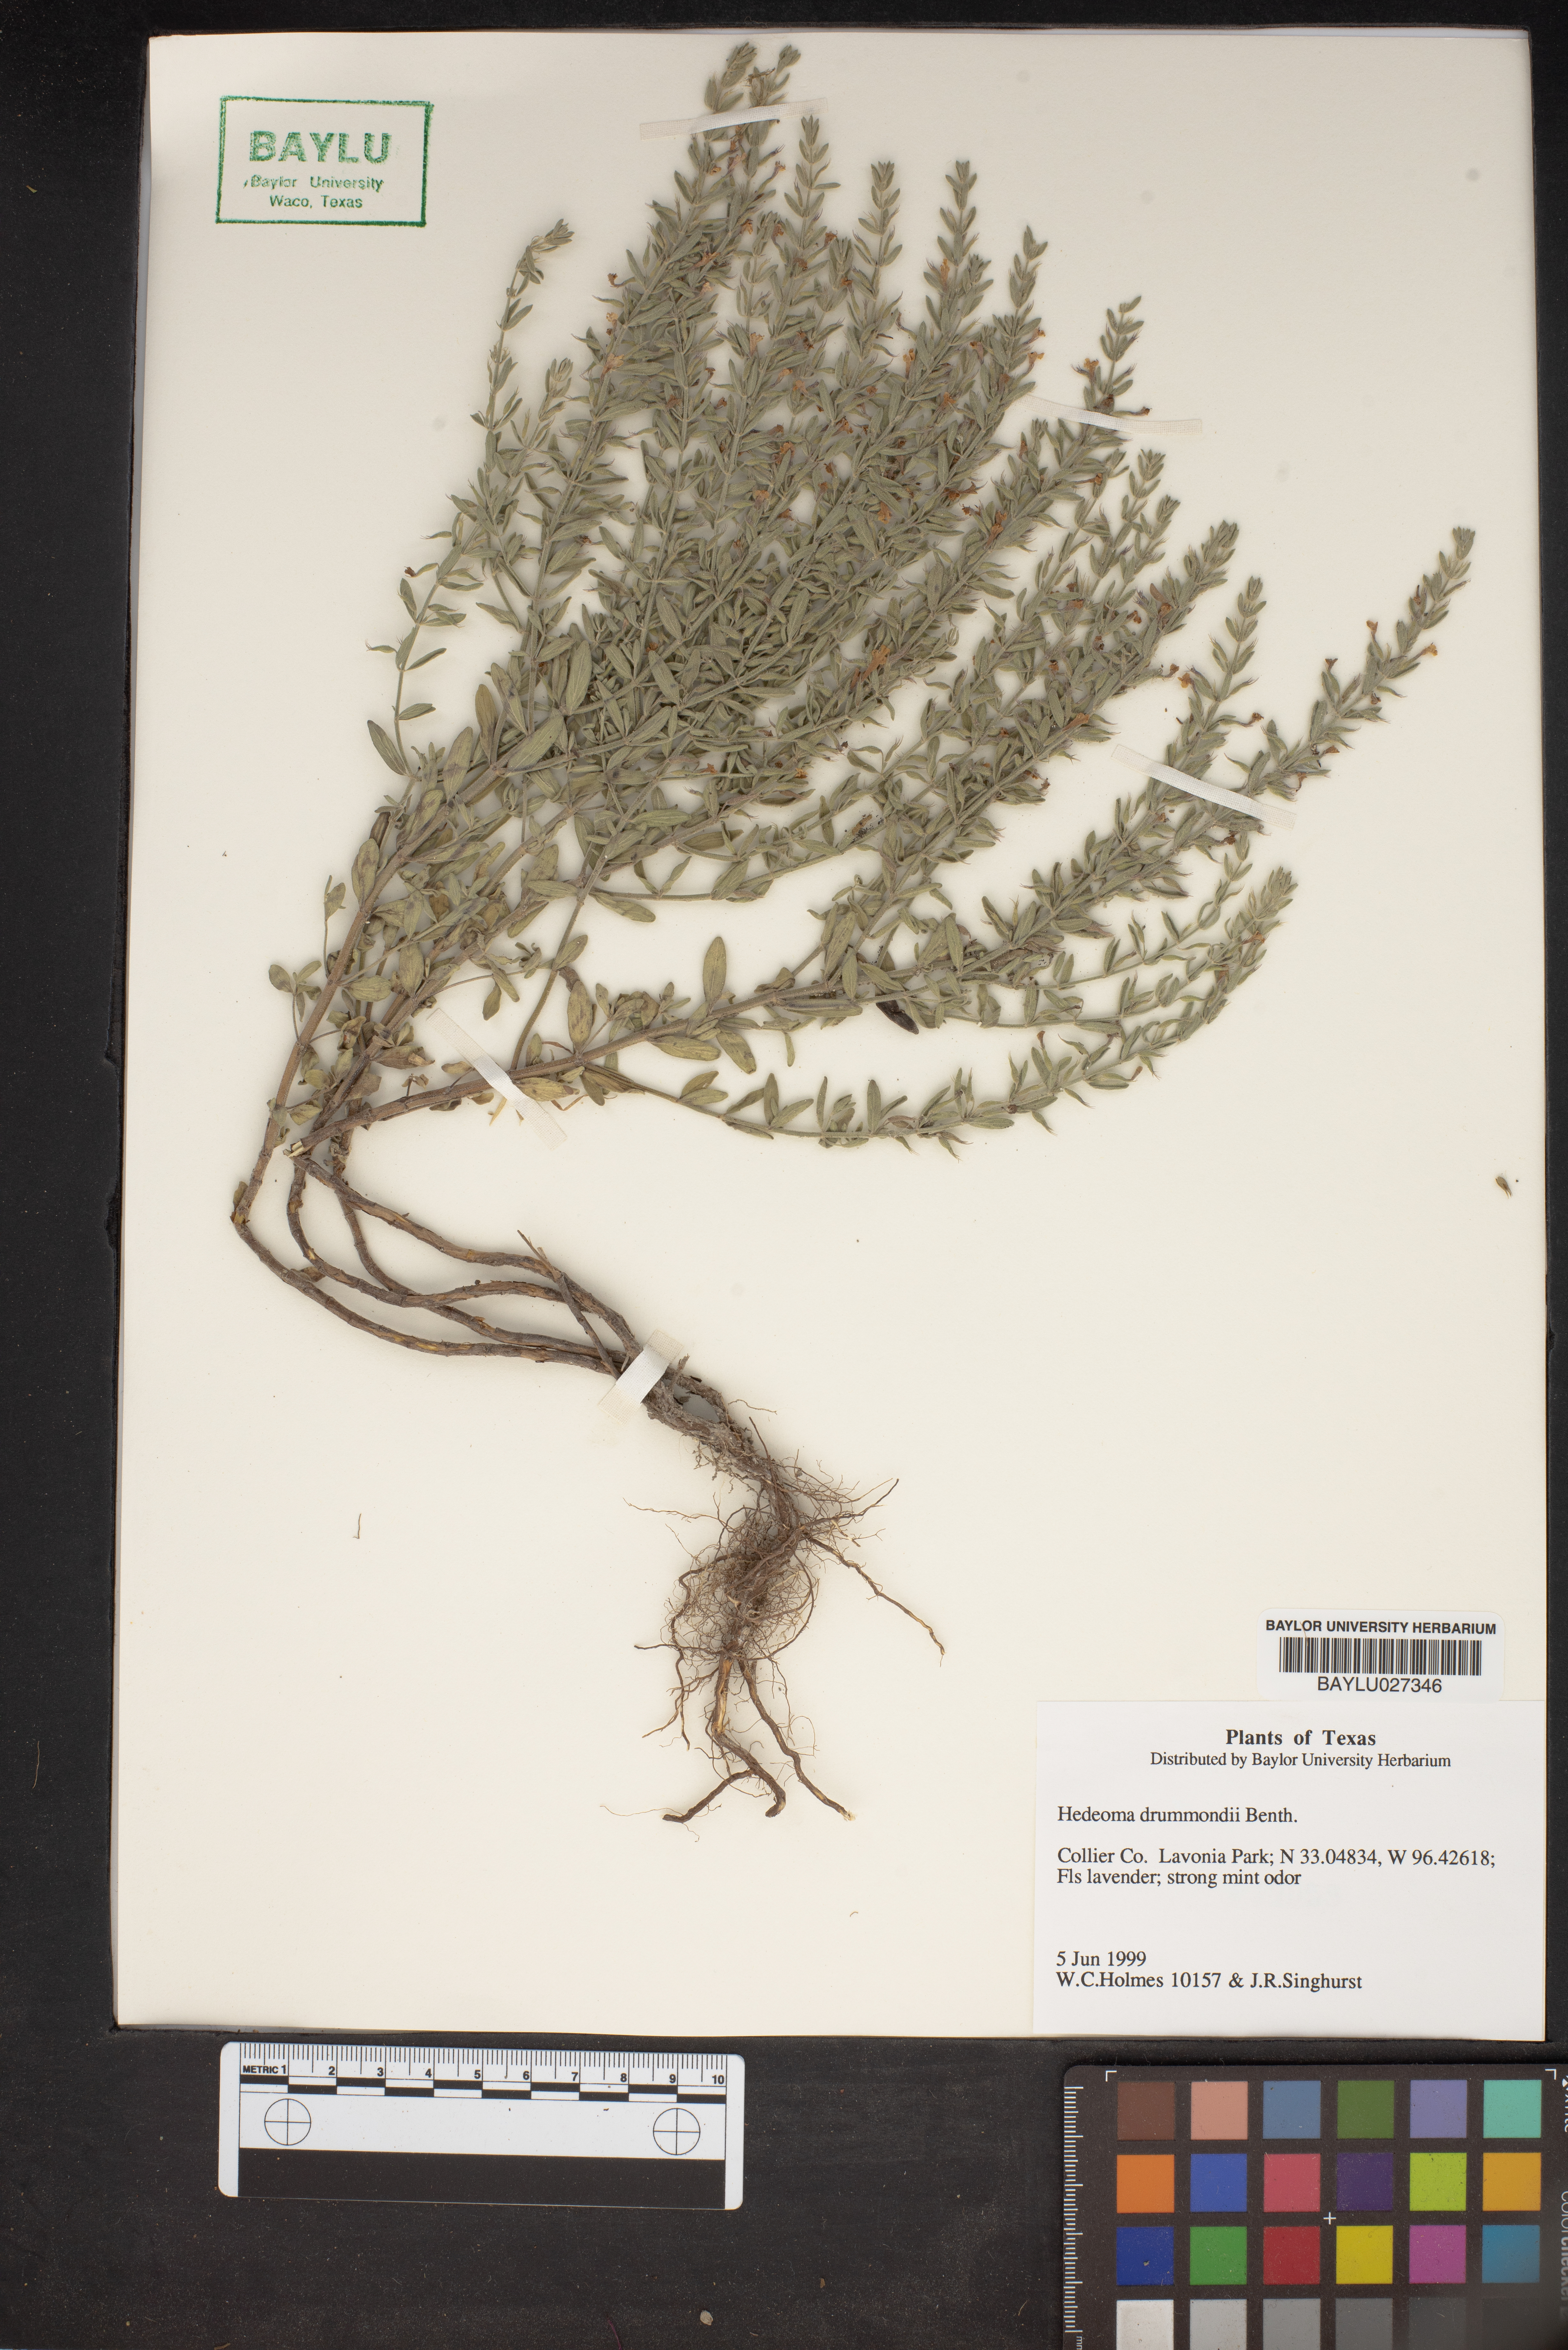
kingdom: Plantae
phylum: Tracheophyta
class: Magnoliopsida
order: Lamiales
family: Lamiaceae
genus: Hedeoma
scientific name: Hedeoma drummondii
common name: New mexico pennyroyal
